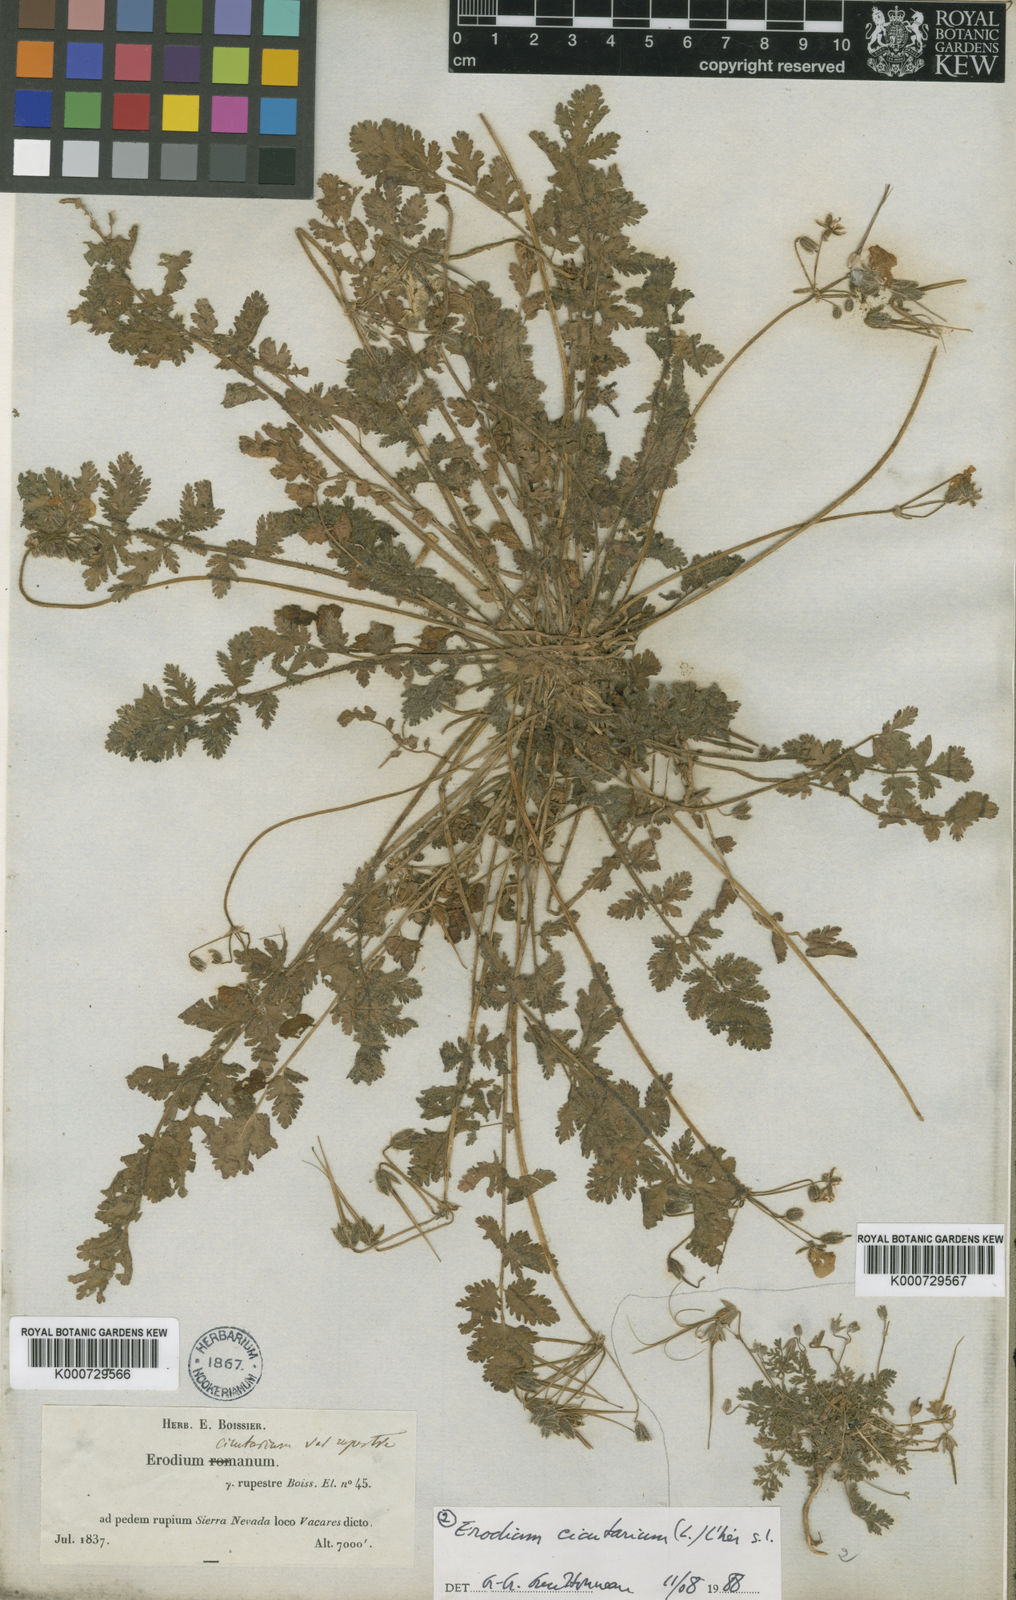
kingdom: Plantae
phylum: Tracheophyta
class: Magnoliopsida
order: Geraniales
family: Geraniaceae
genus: Erodium
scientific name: Erodium rupicola
